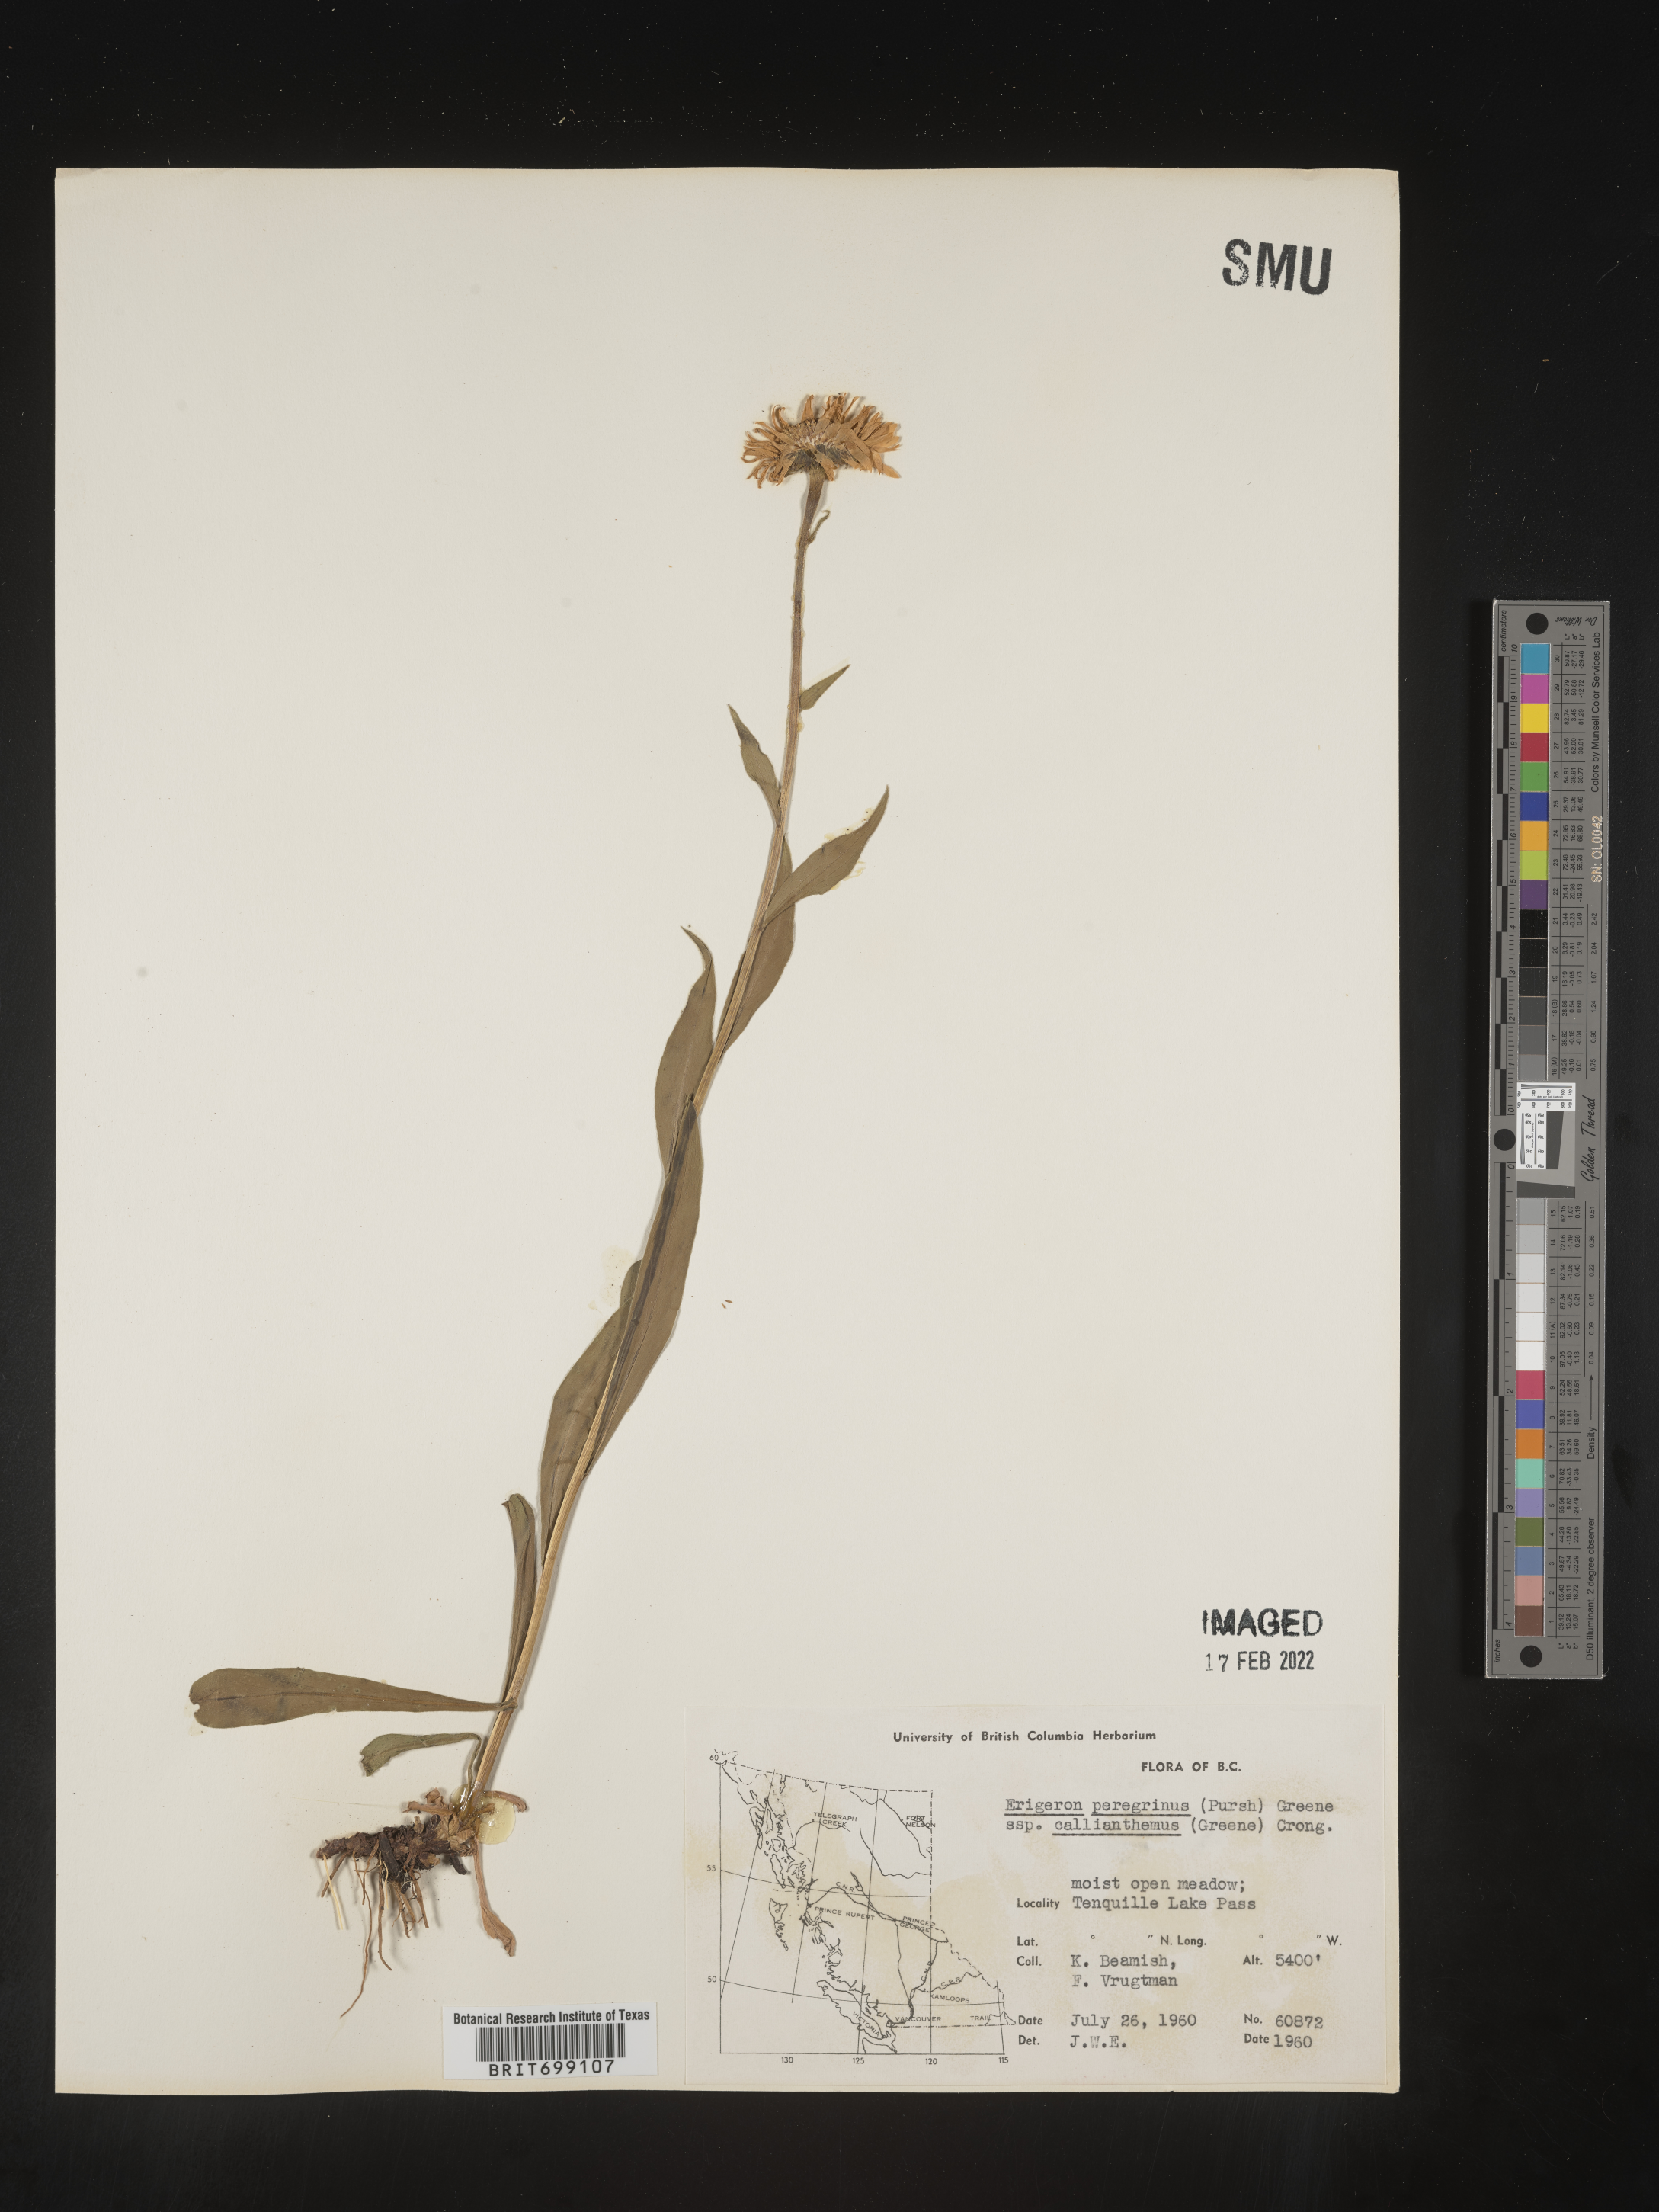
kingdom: Plantae
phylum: Tracheophyta
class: Magnoliopsida
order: Asterales
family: Asteraceae
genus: Erigeron
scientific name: Erigeron peregrinus
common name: Peregrine fleabane
